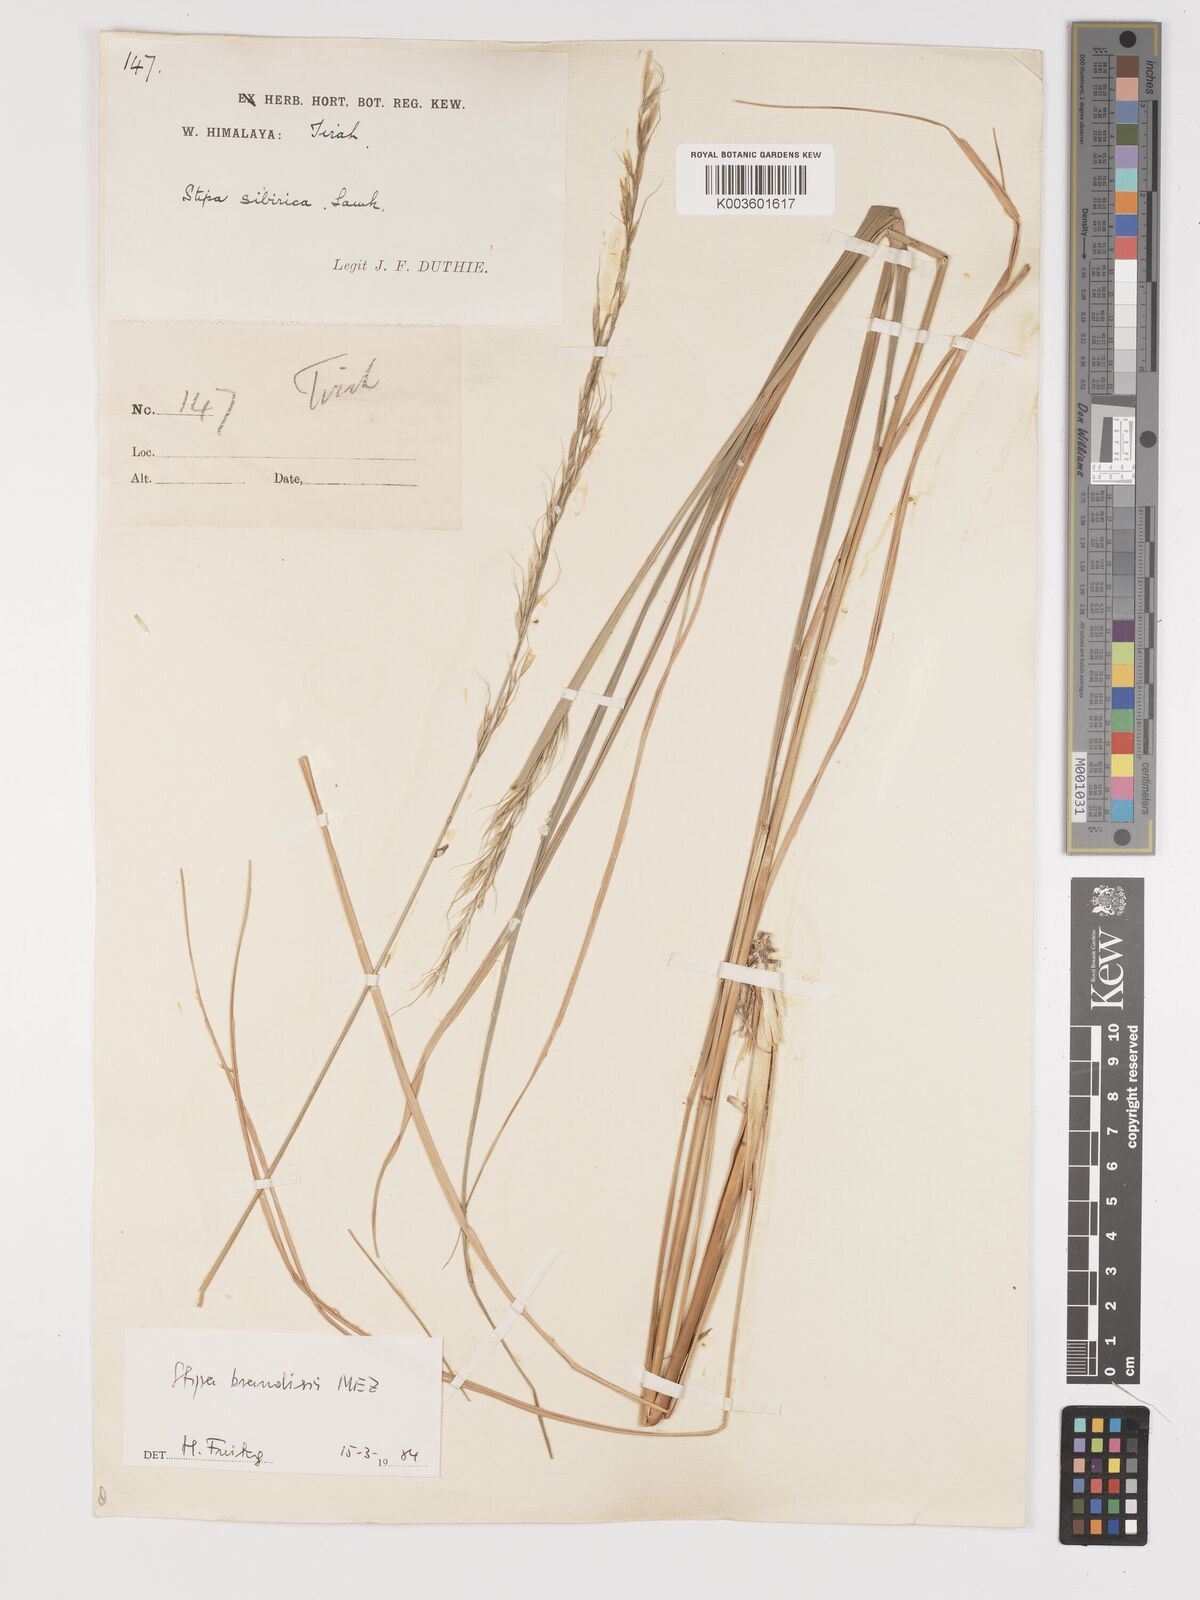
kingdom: Plantae
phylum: Tracheophyta
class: Liliopsida
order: Poales
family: Poaceae
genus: Achnatherum
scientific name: Achnatherum brandisii
